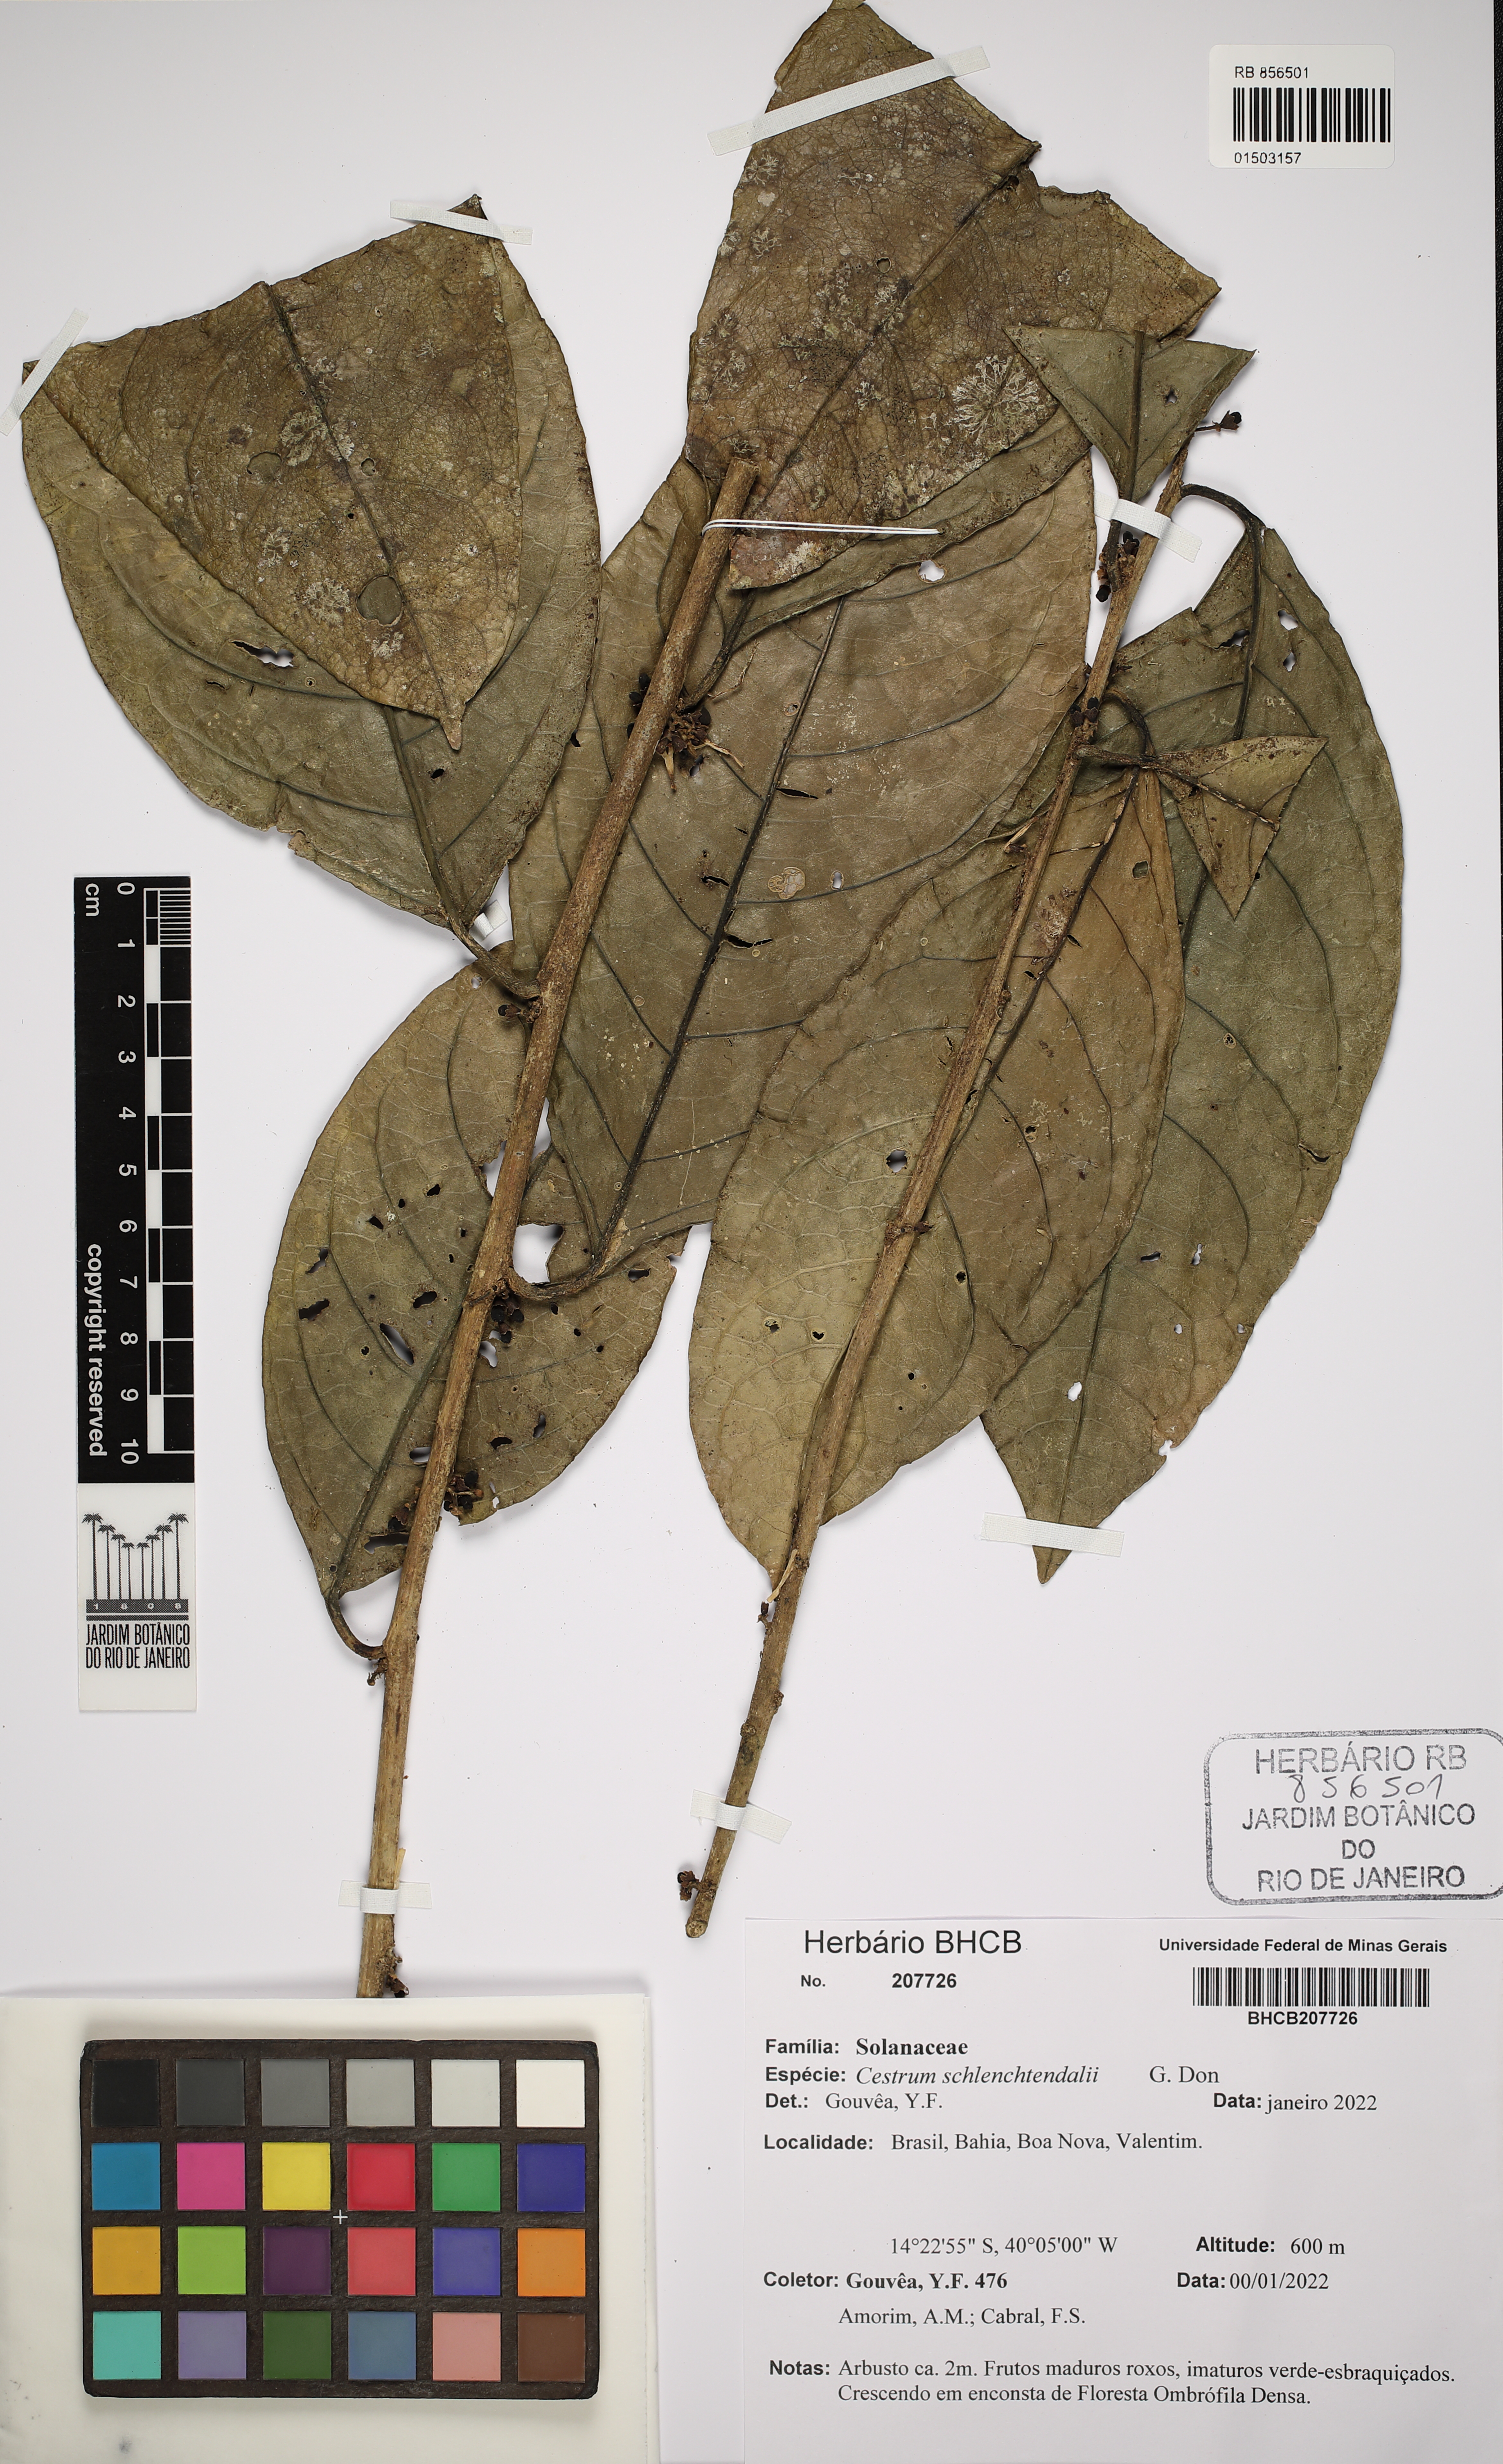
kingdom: Plantae
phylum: Tracheophyta
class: Magnoliopsida
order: Solanales
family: Solanaceae
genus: Cestrum
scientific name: Cestrum schlechtendalii
